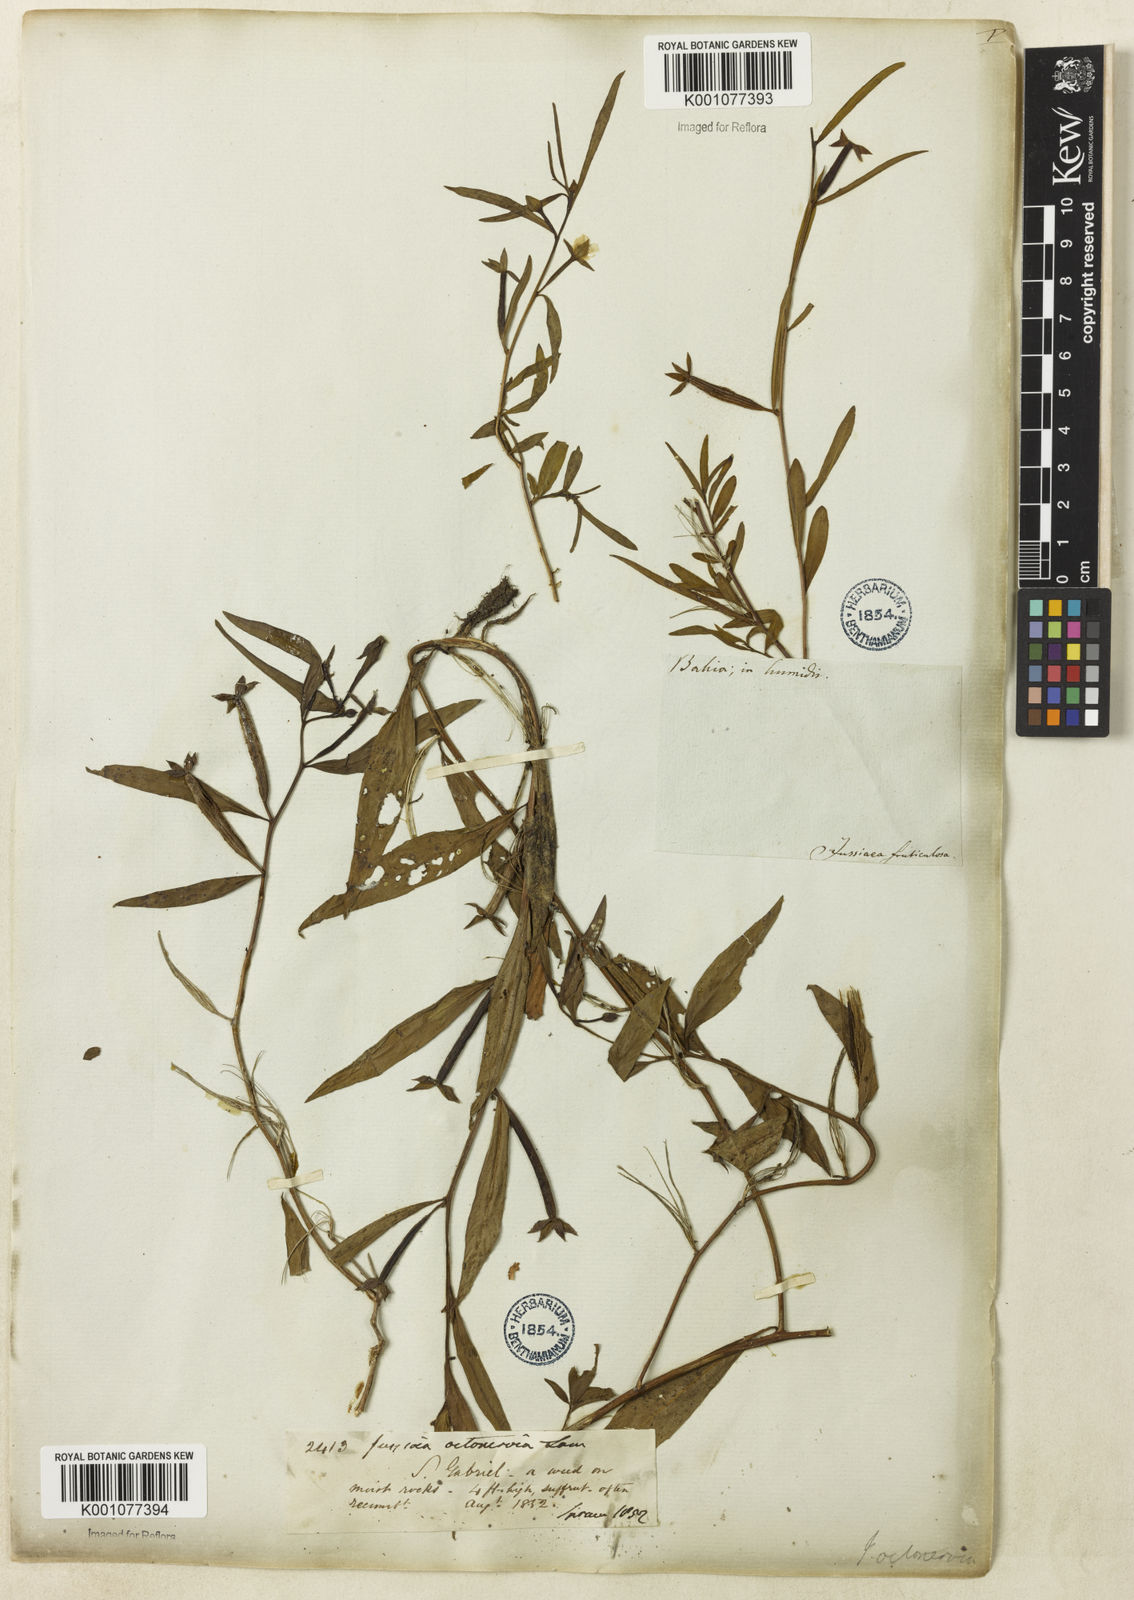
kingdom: Plantae
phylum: Tracheophyta
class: Magnoliopsida
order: Myrtales
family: Onagraceae
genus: Ludwigia
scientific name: Ludwigia octovalvis
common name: Water-primrose
